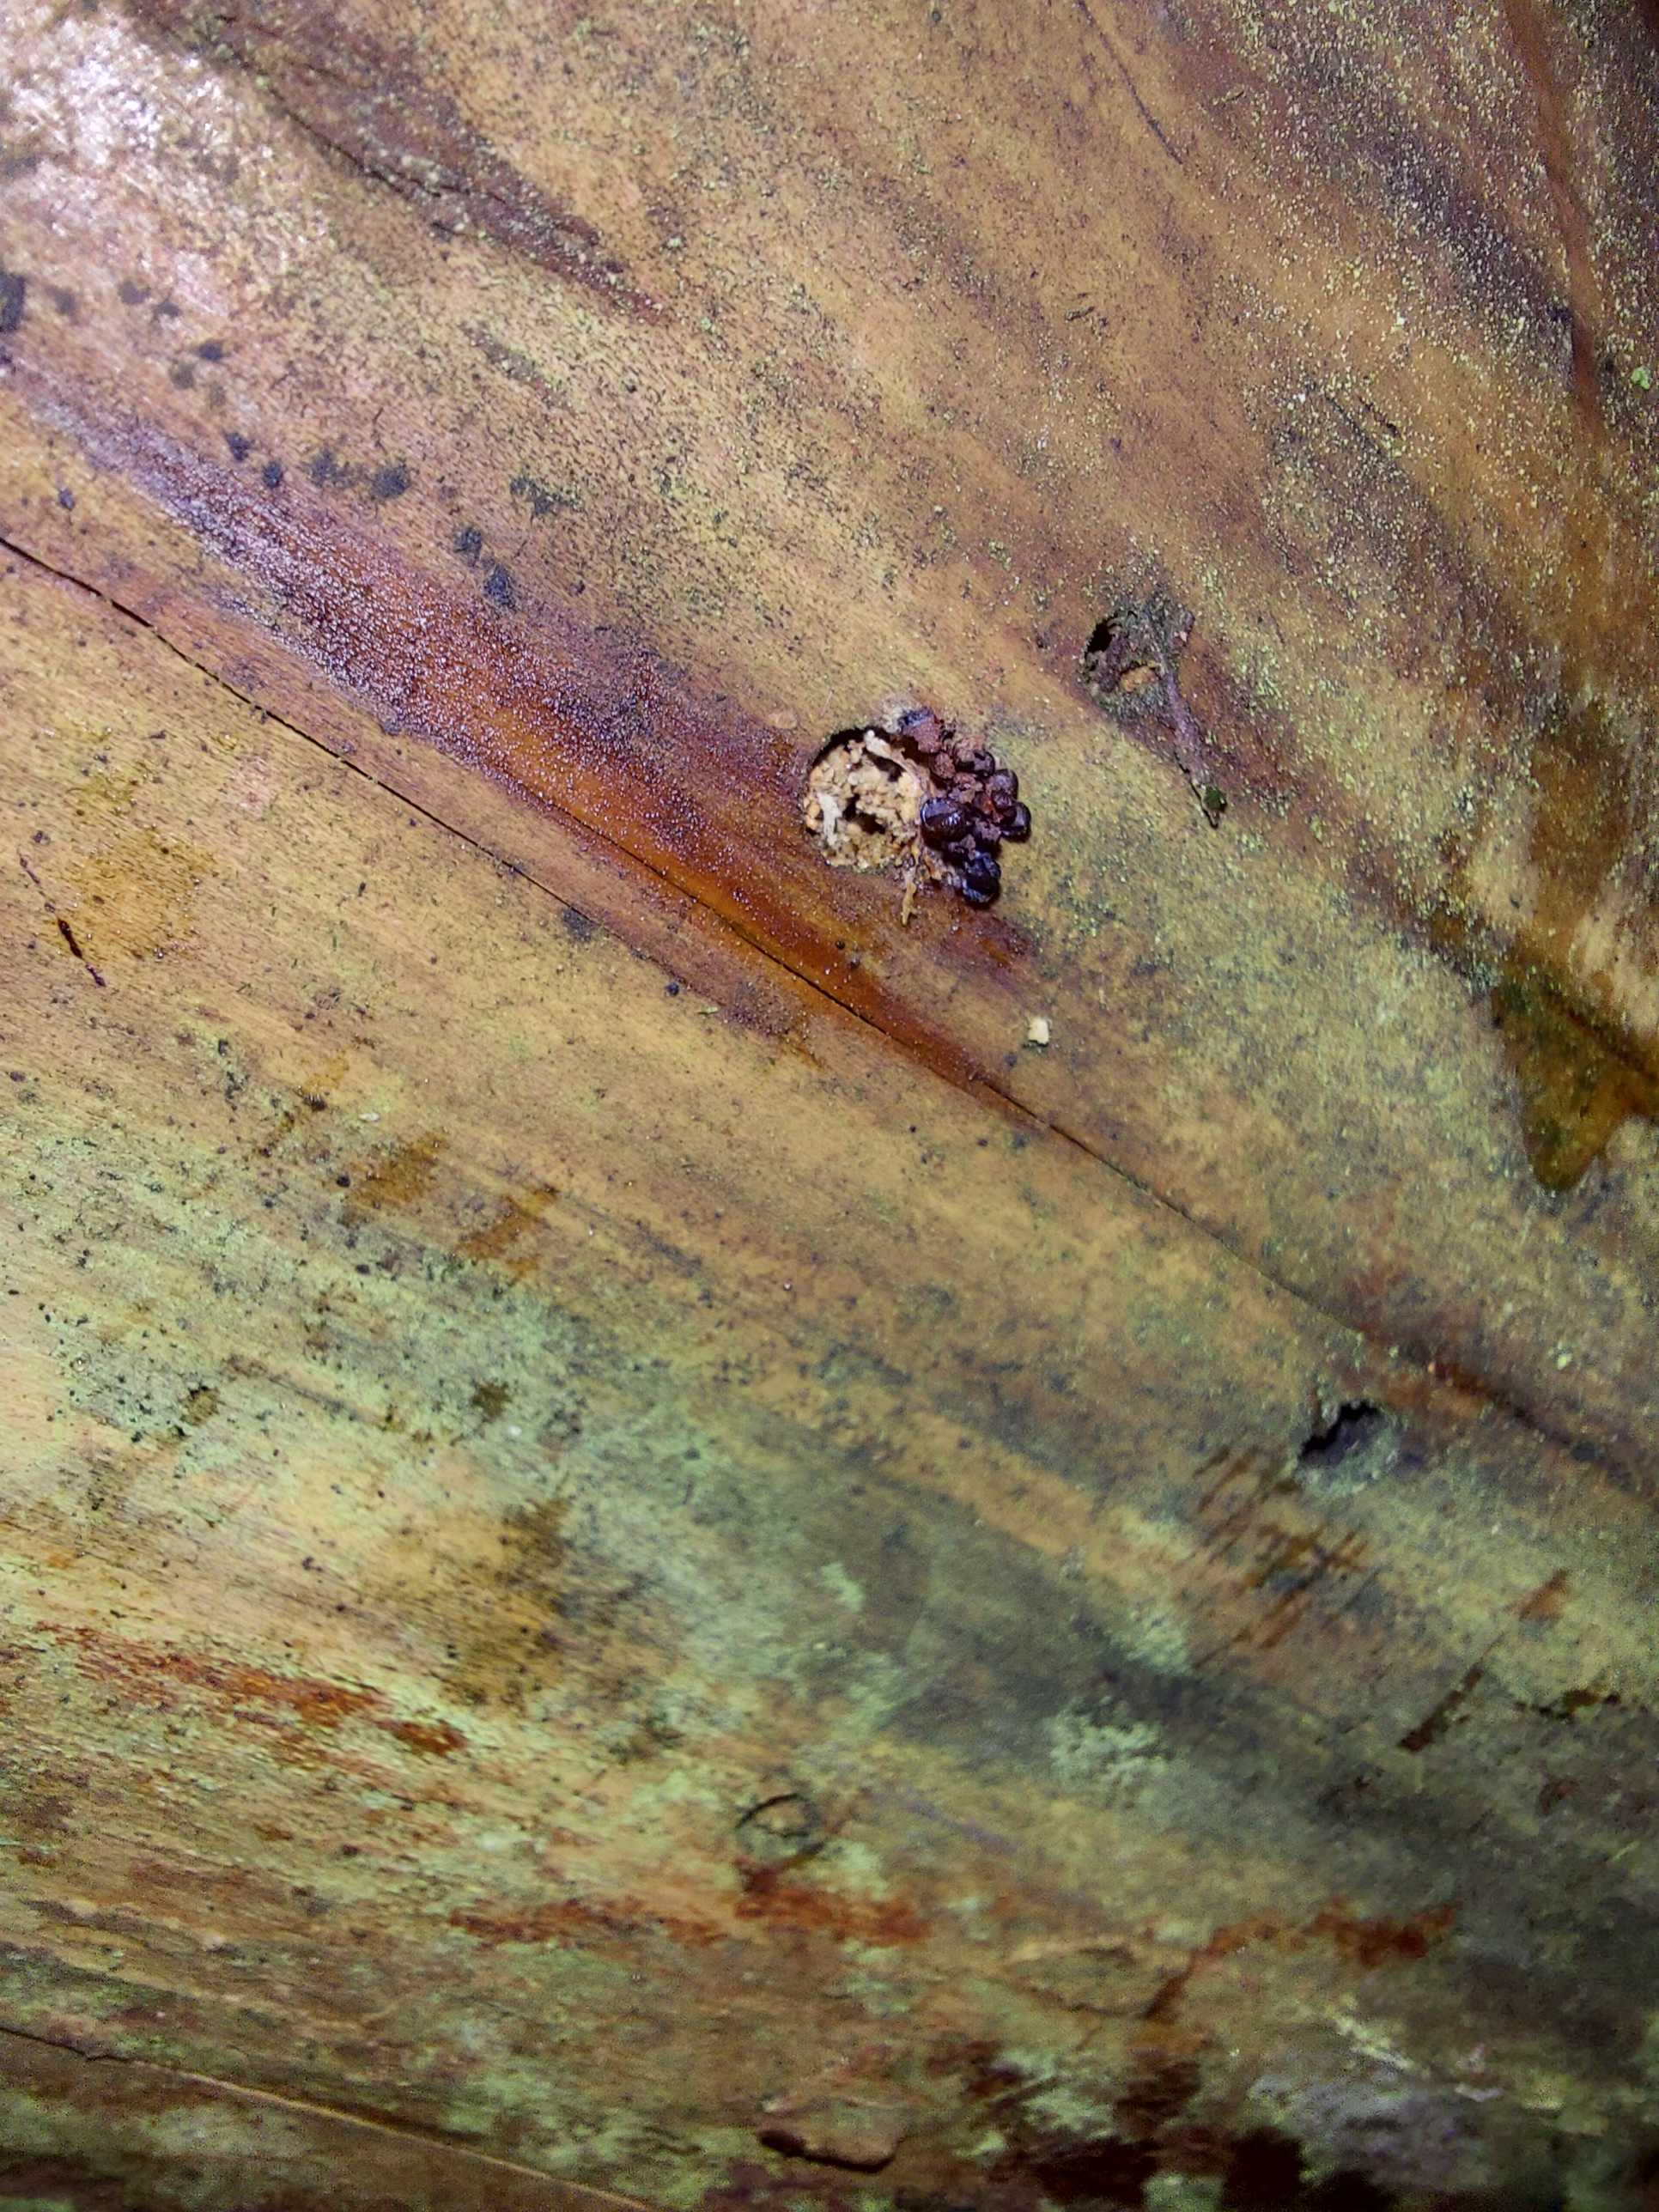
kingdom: Protozoa
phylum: Mycetozoa
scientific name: Mycetozoa
